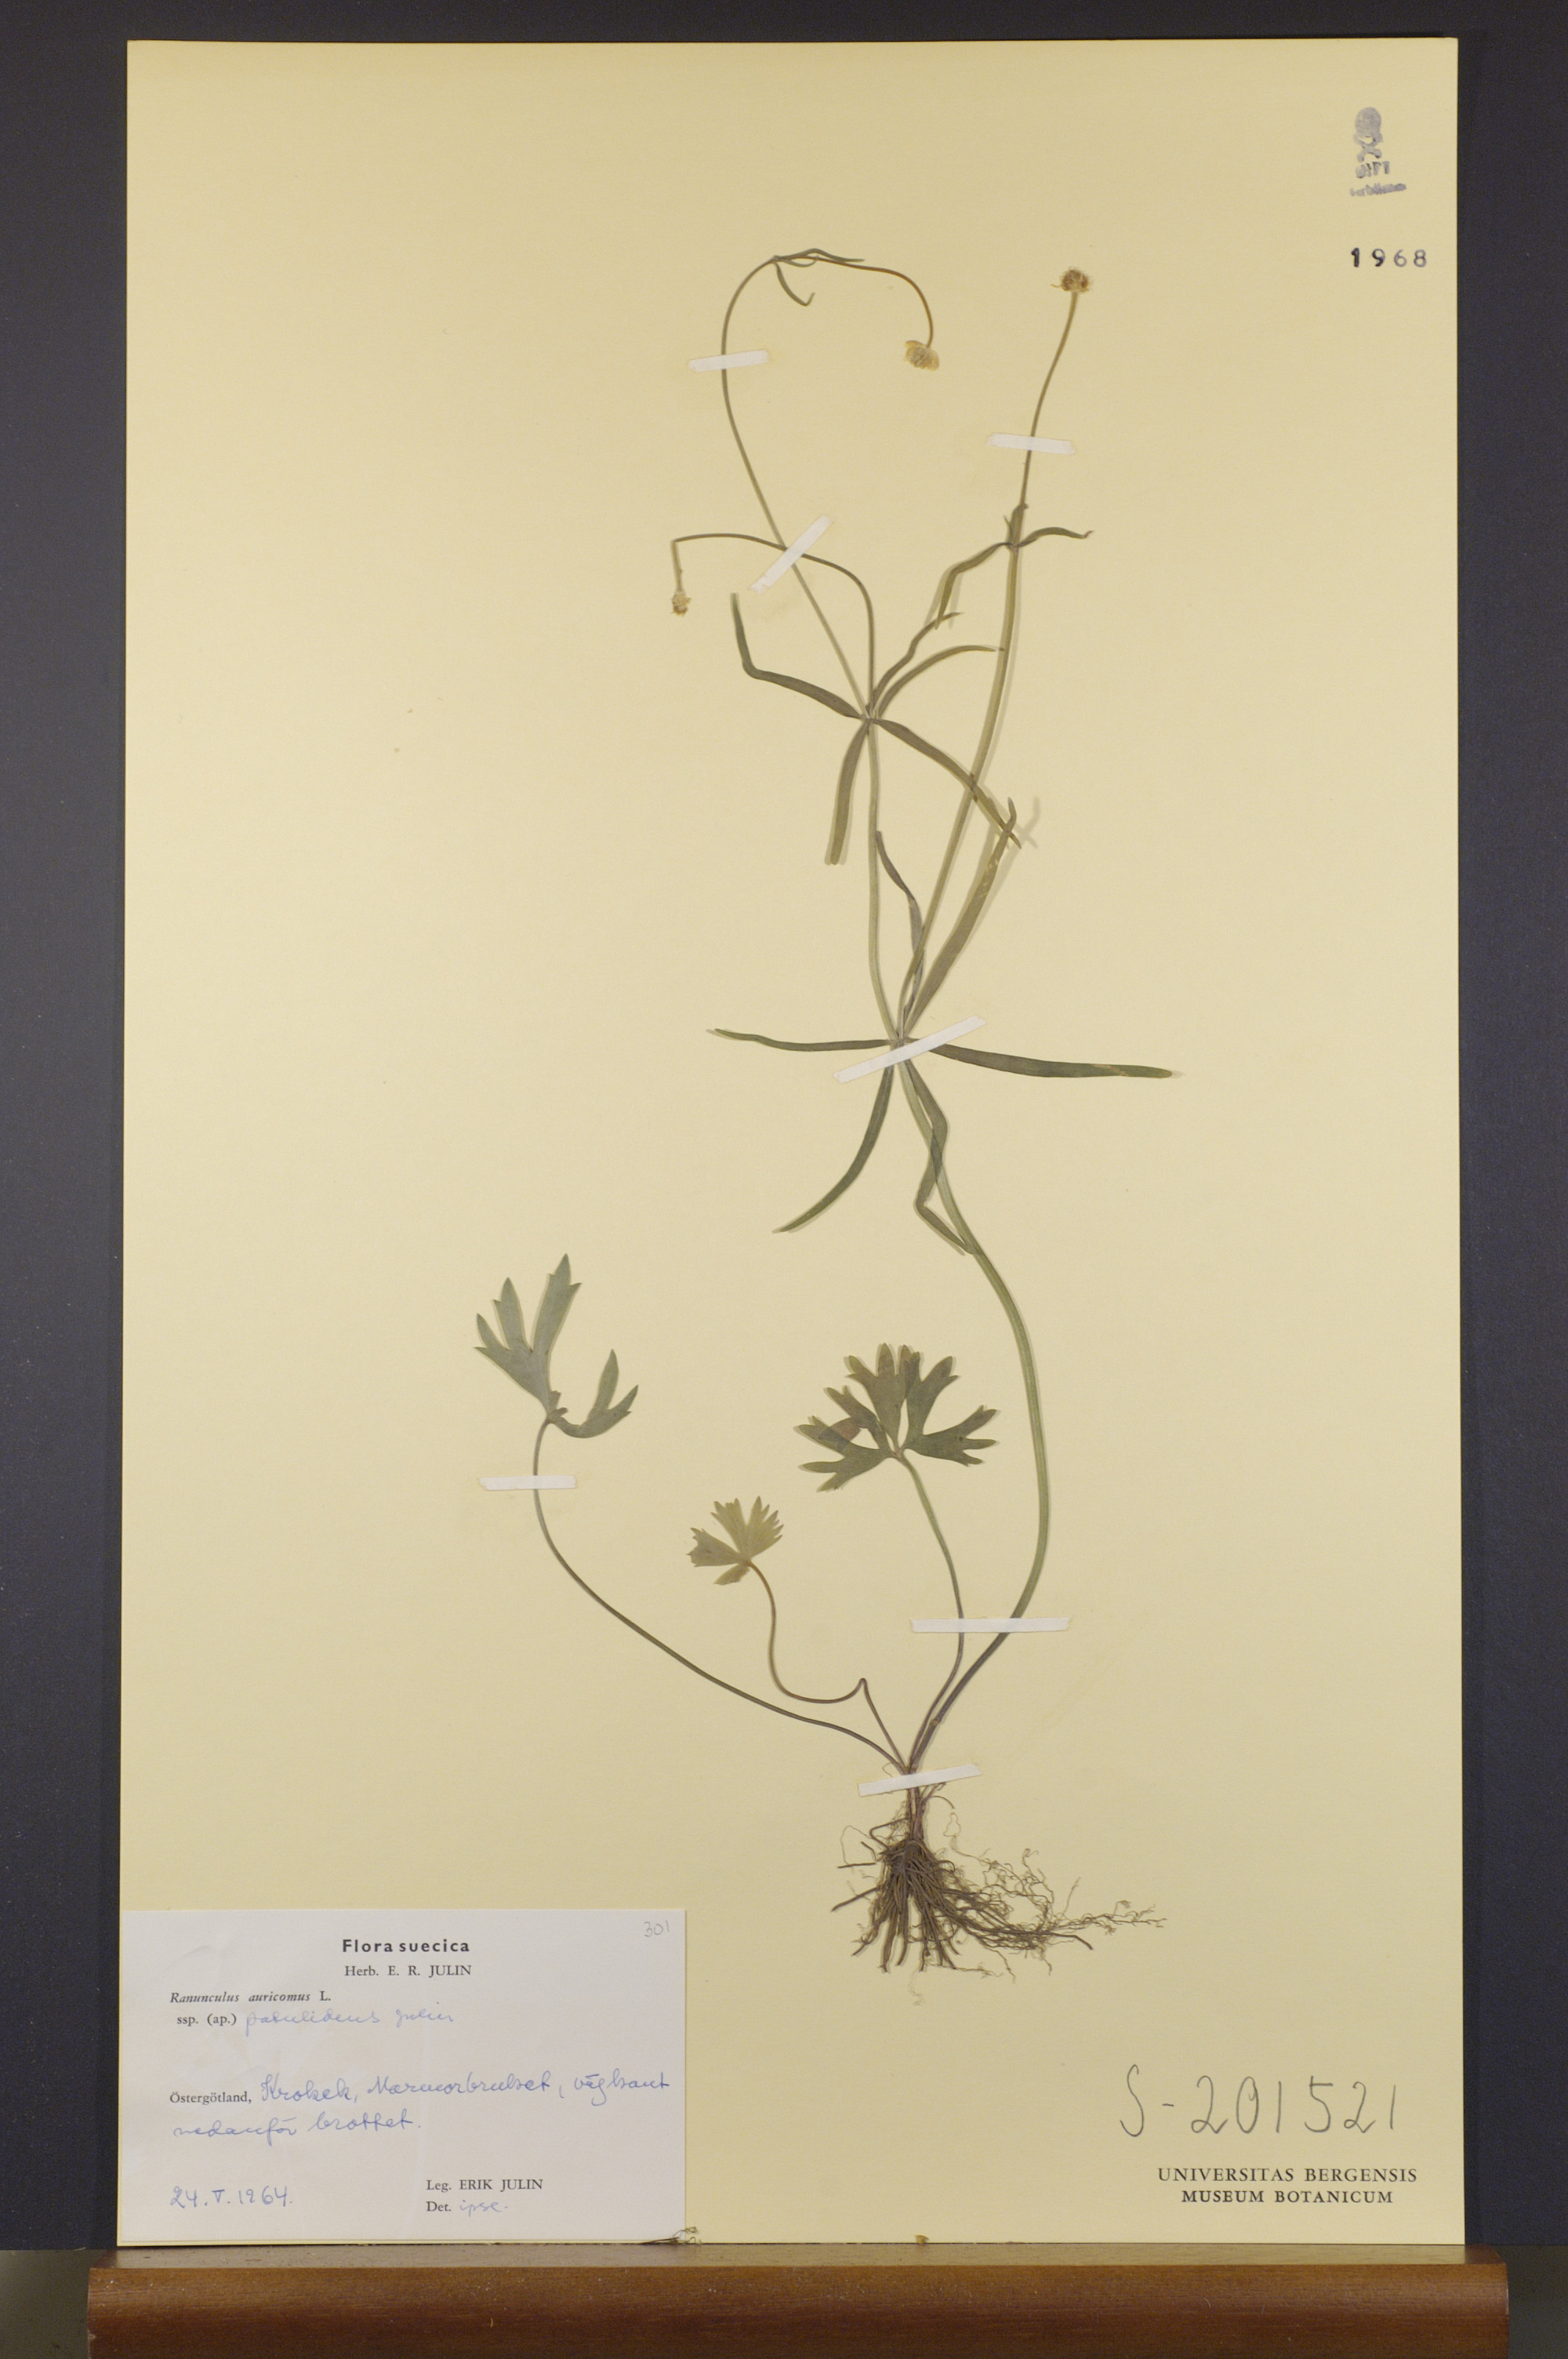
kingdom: Plantae
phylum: Tracheophyta
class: Magnoliopsida
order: Ranunculales
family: Ranunculaceae
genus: Ranunculus
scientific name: Ranunculus patulidens
